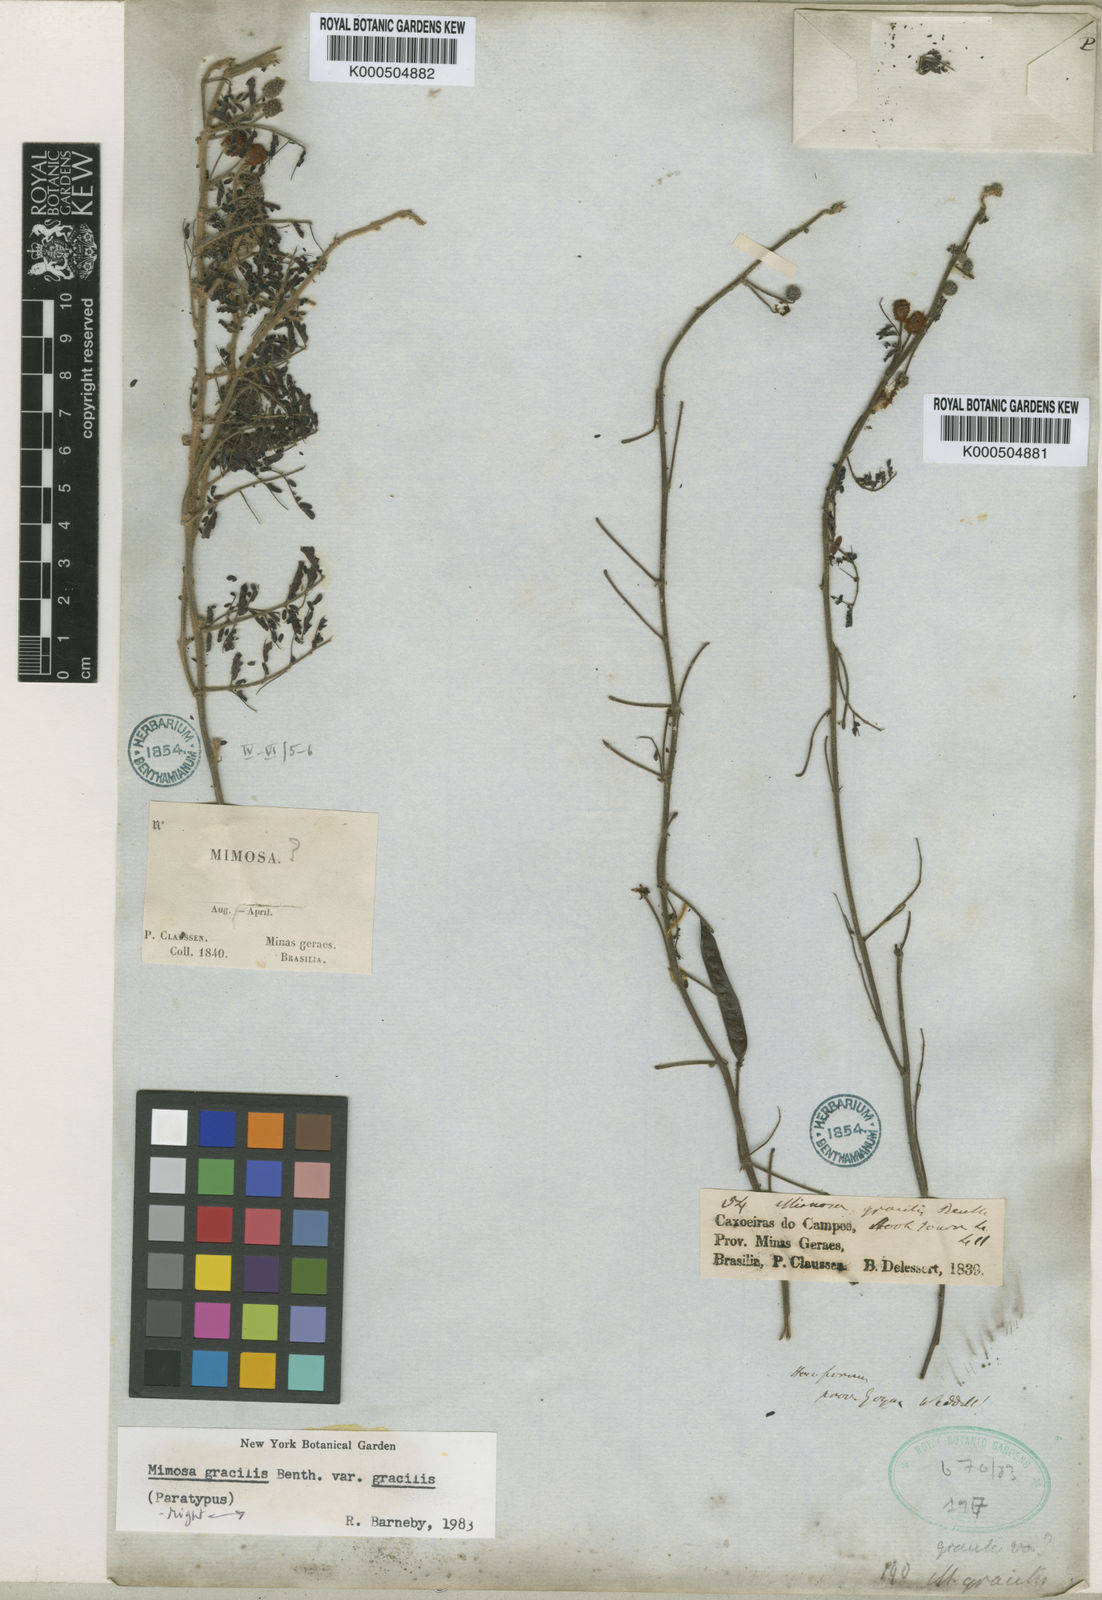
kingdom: Plantae
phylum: Tracheophyta
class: Magnoliopsida
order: Fabales
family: Fabaceae
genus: Mimosa
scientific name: Mimosa gracilis
